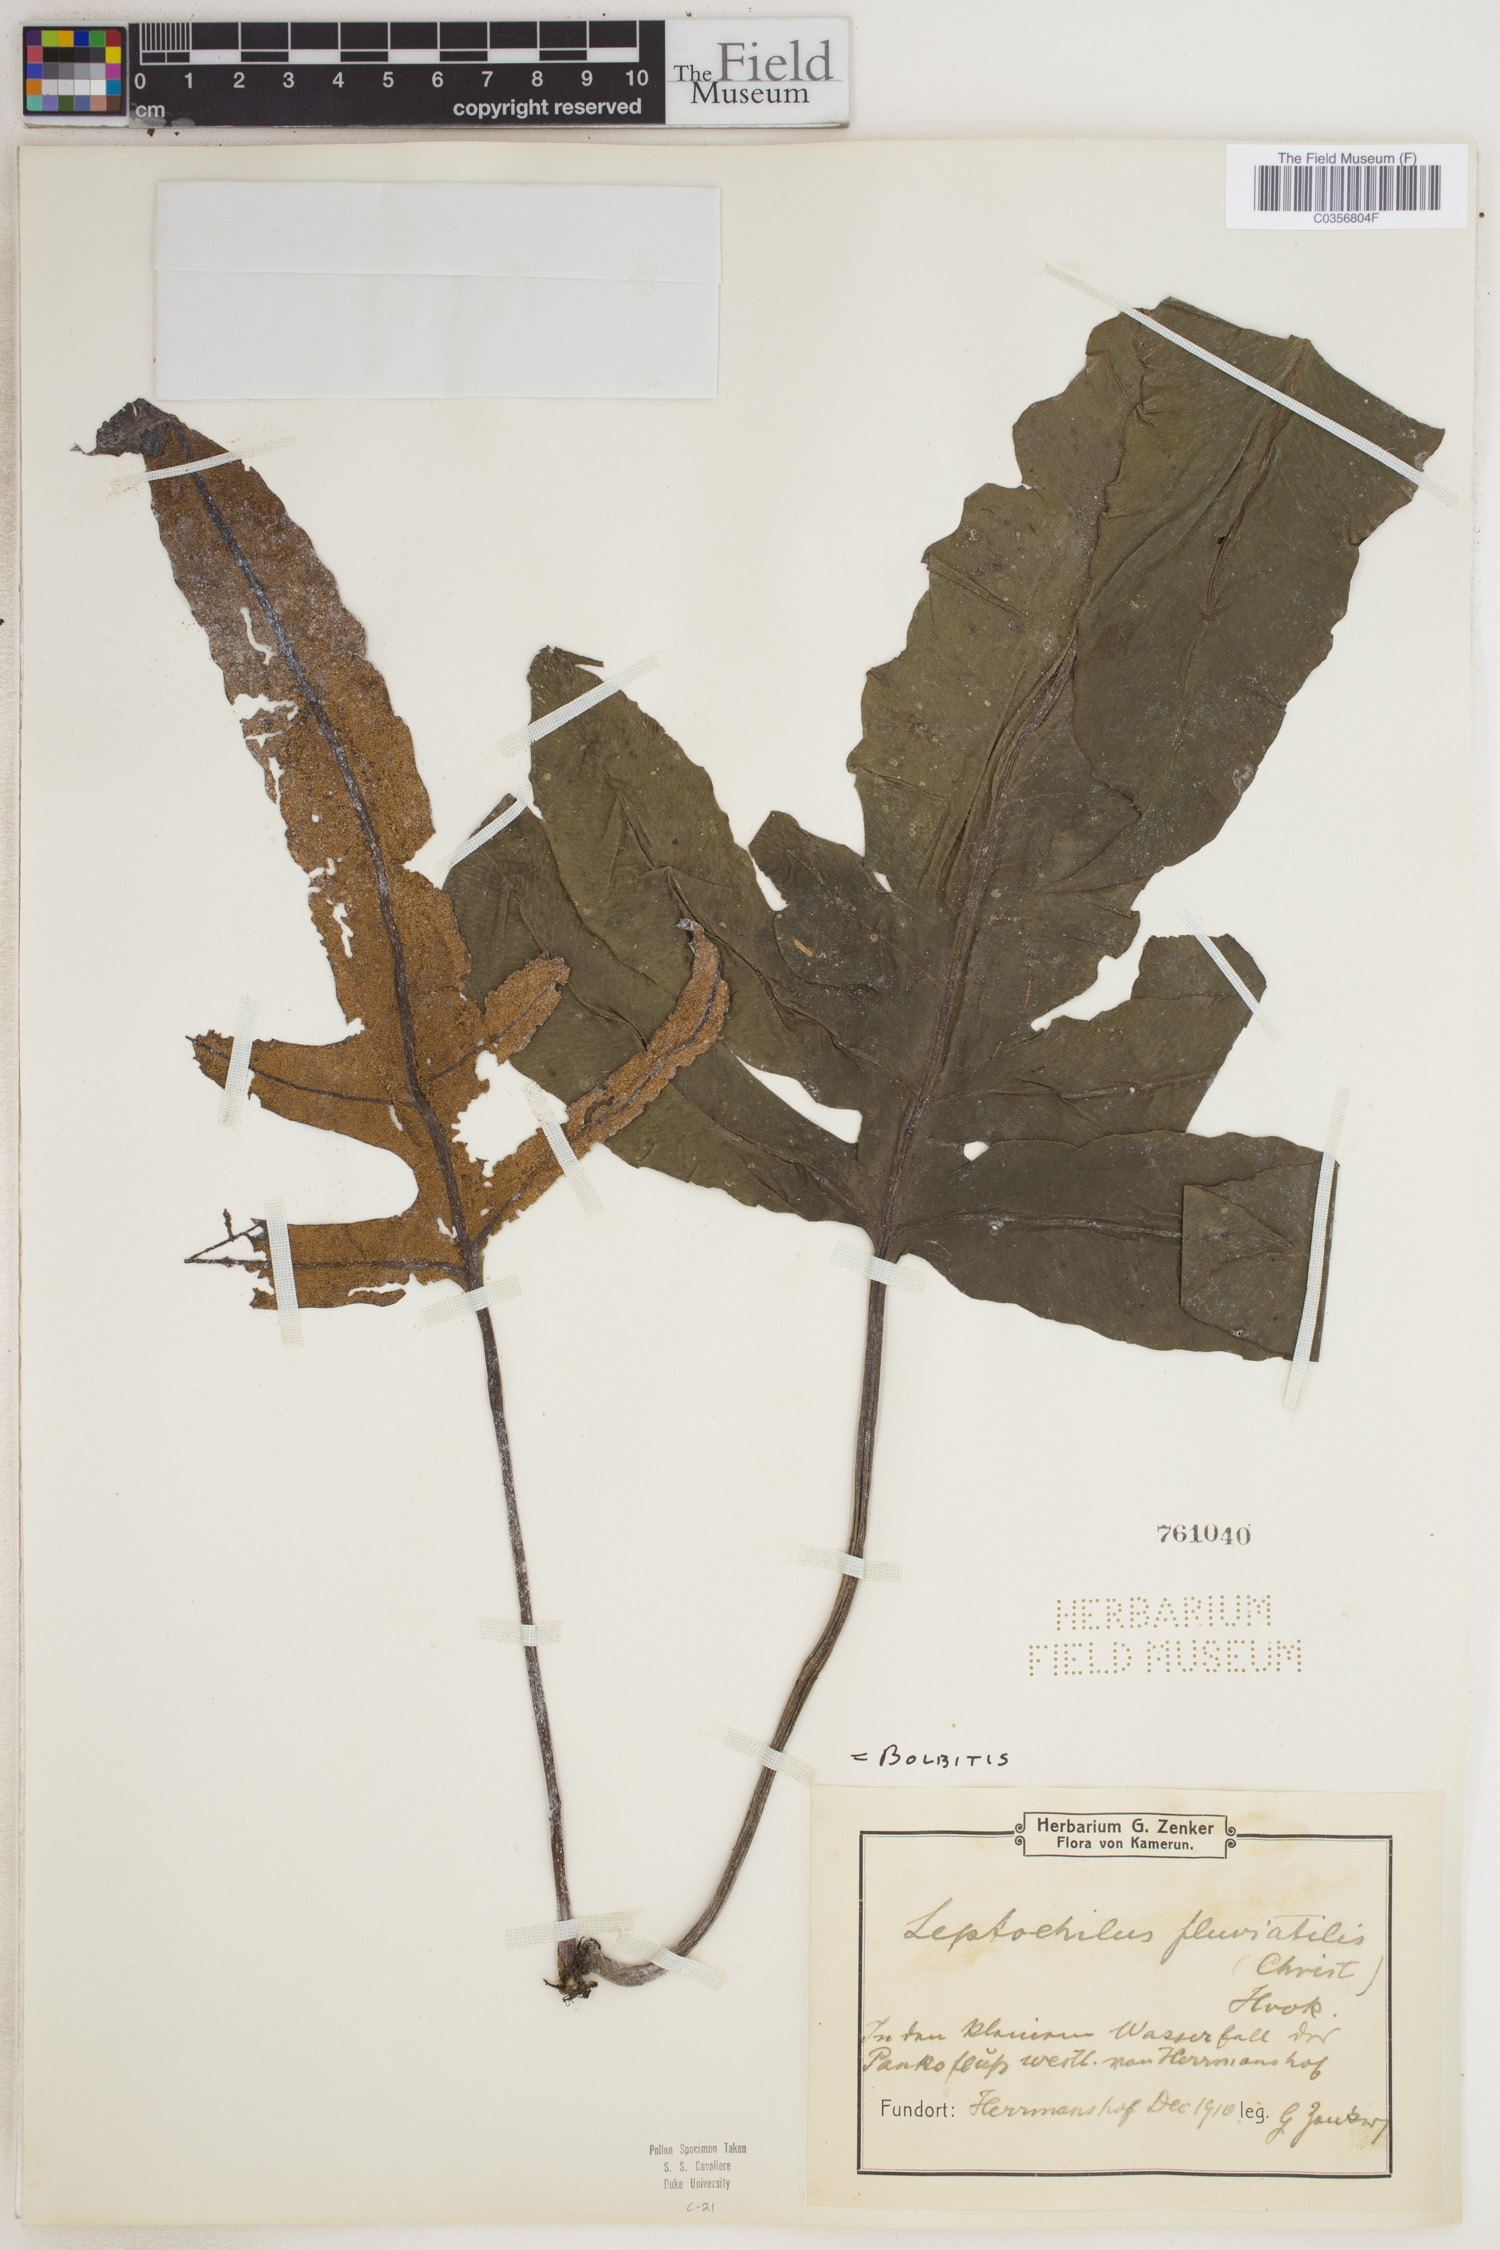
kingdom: Plantae
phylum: Tracheophyta
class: Polypodiopsida
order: Polypodiales
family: Dryopteridaceae
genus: Bolbitis
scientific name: Bolbitis
